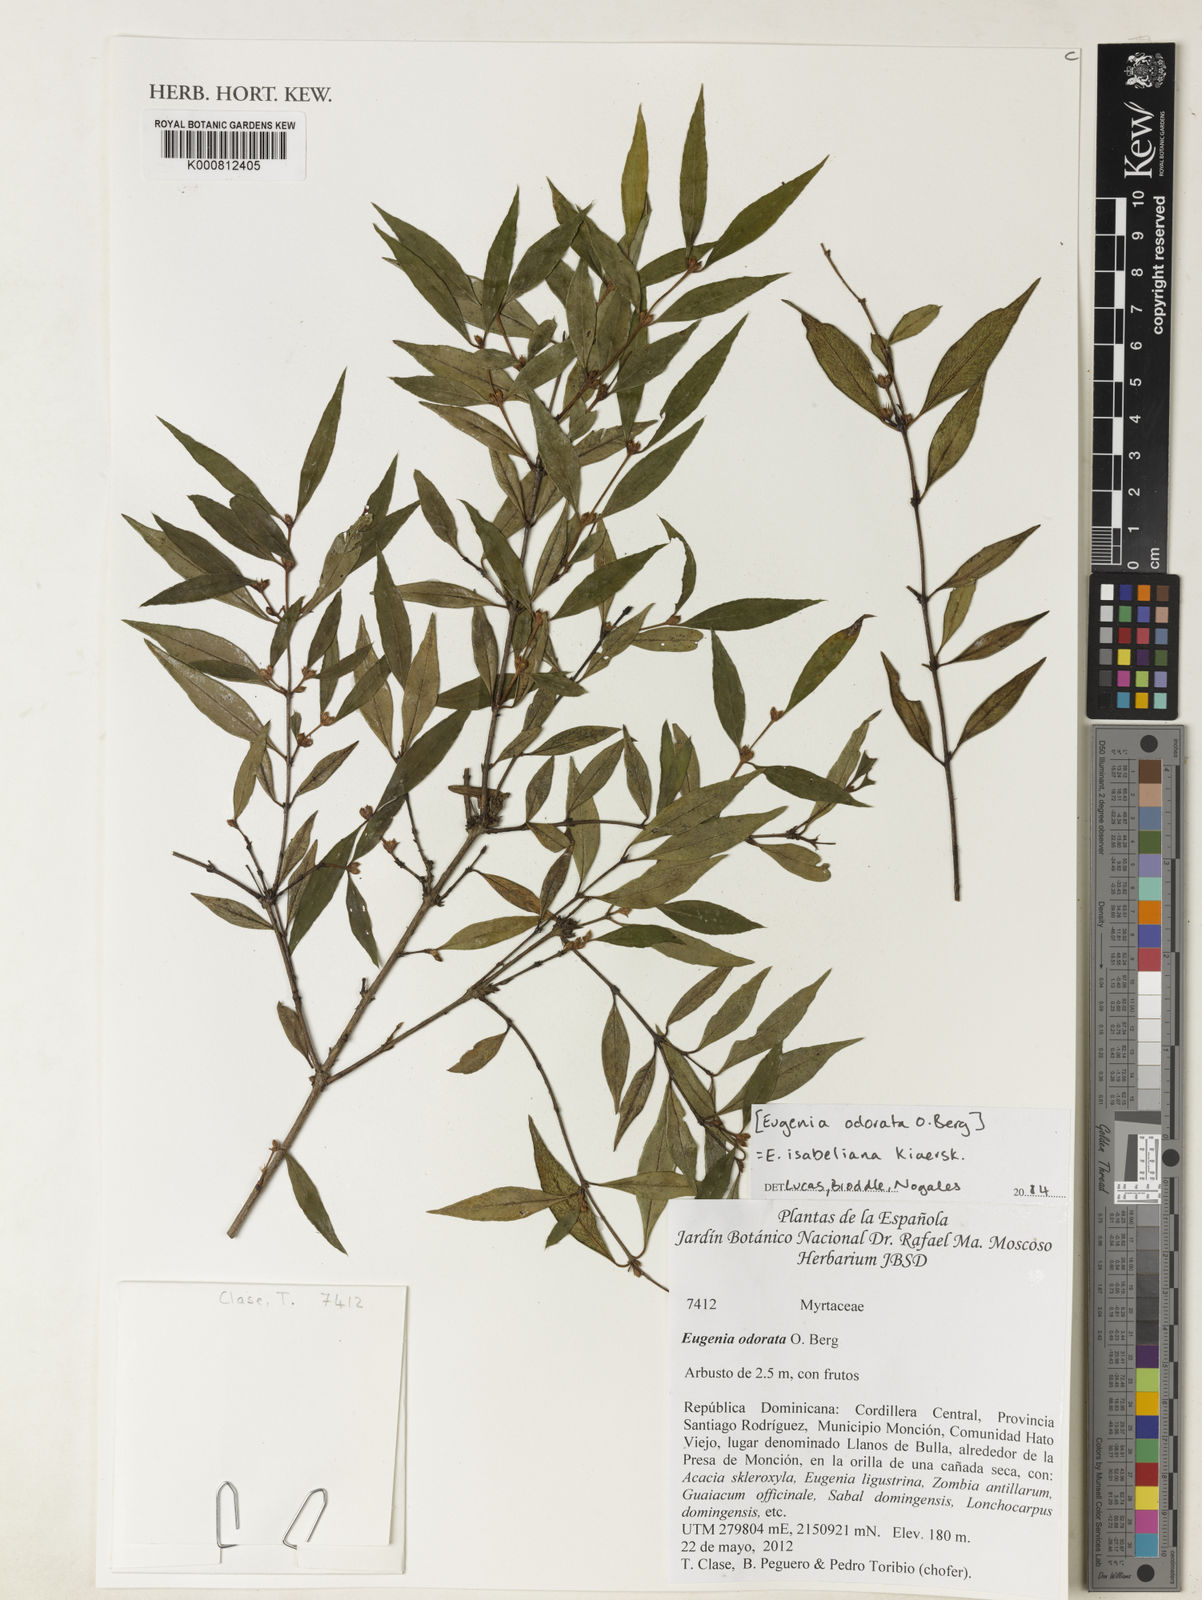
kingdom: Plantae
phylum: Tracheophyta
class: Magnoliopsida
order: Myrtales
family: Myrtaceae
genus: Eugenia
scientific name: Eugenia isabeliana
